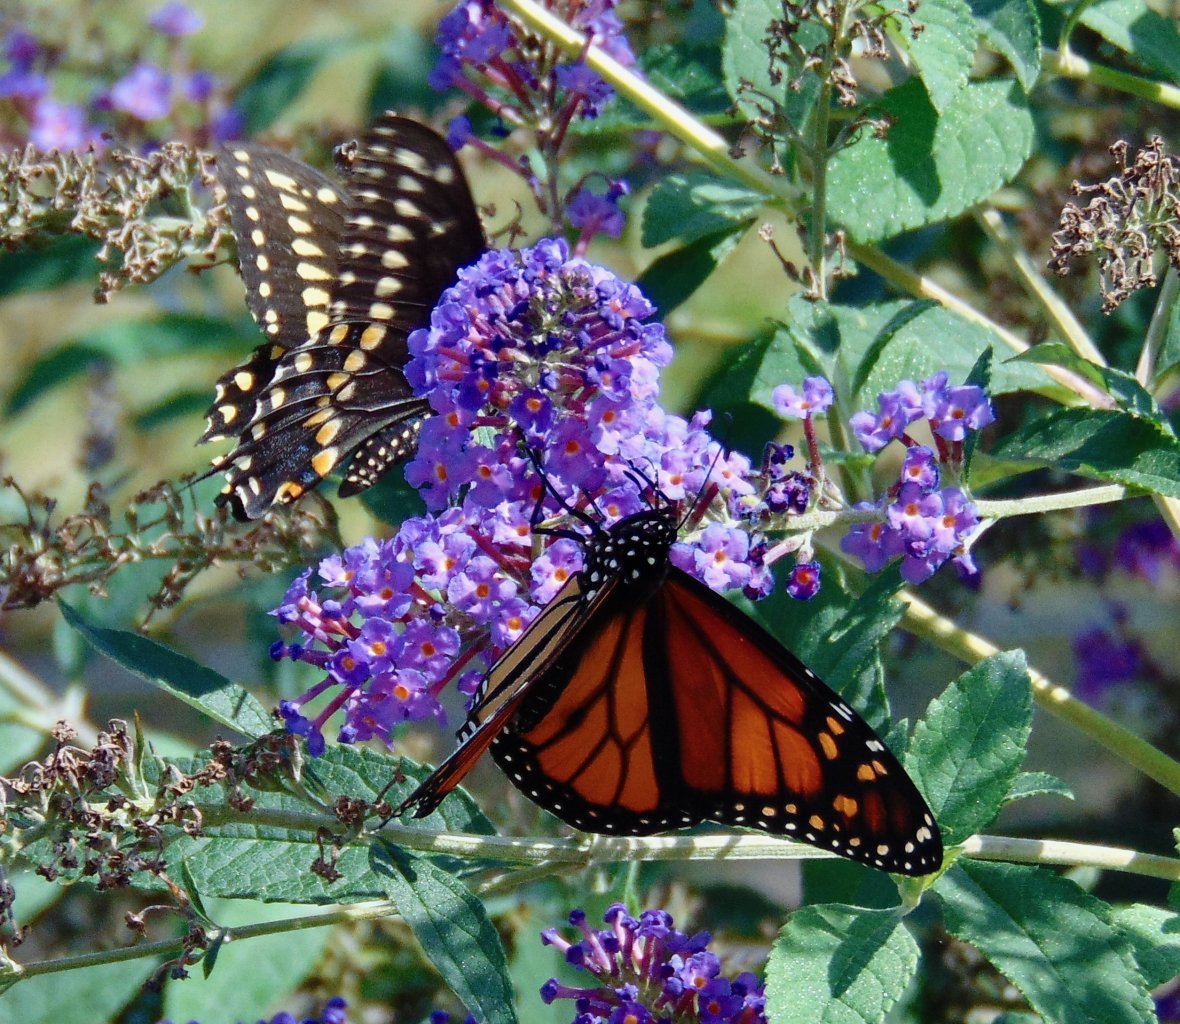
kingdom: Animalia
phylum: Arthropoda
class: Insecta
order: Lepidoptera
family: Nymphalidae
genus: Danaus
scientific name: Danaus plexippus
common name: Monarch
